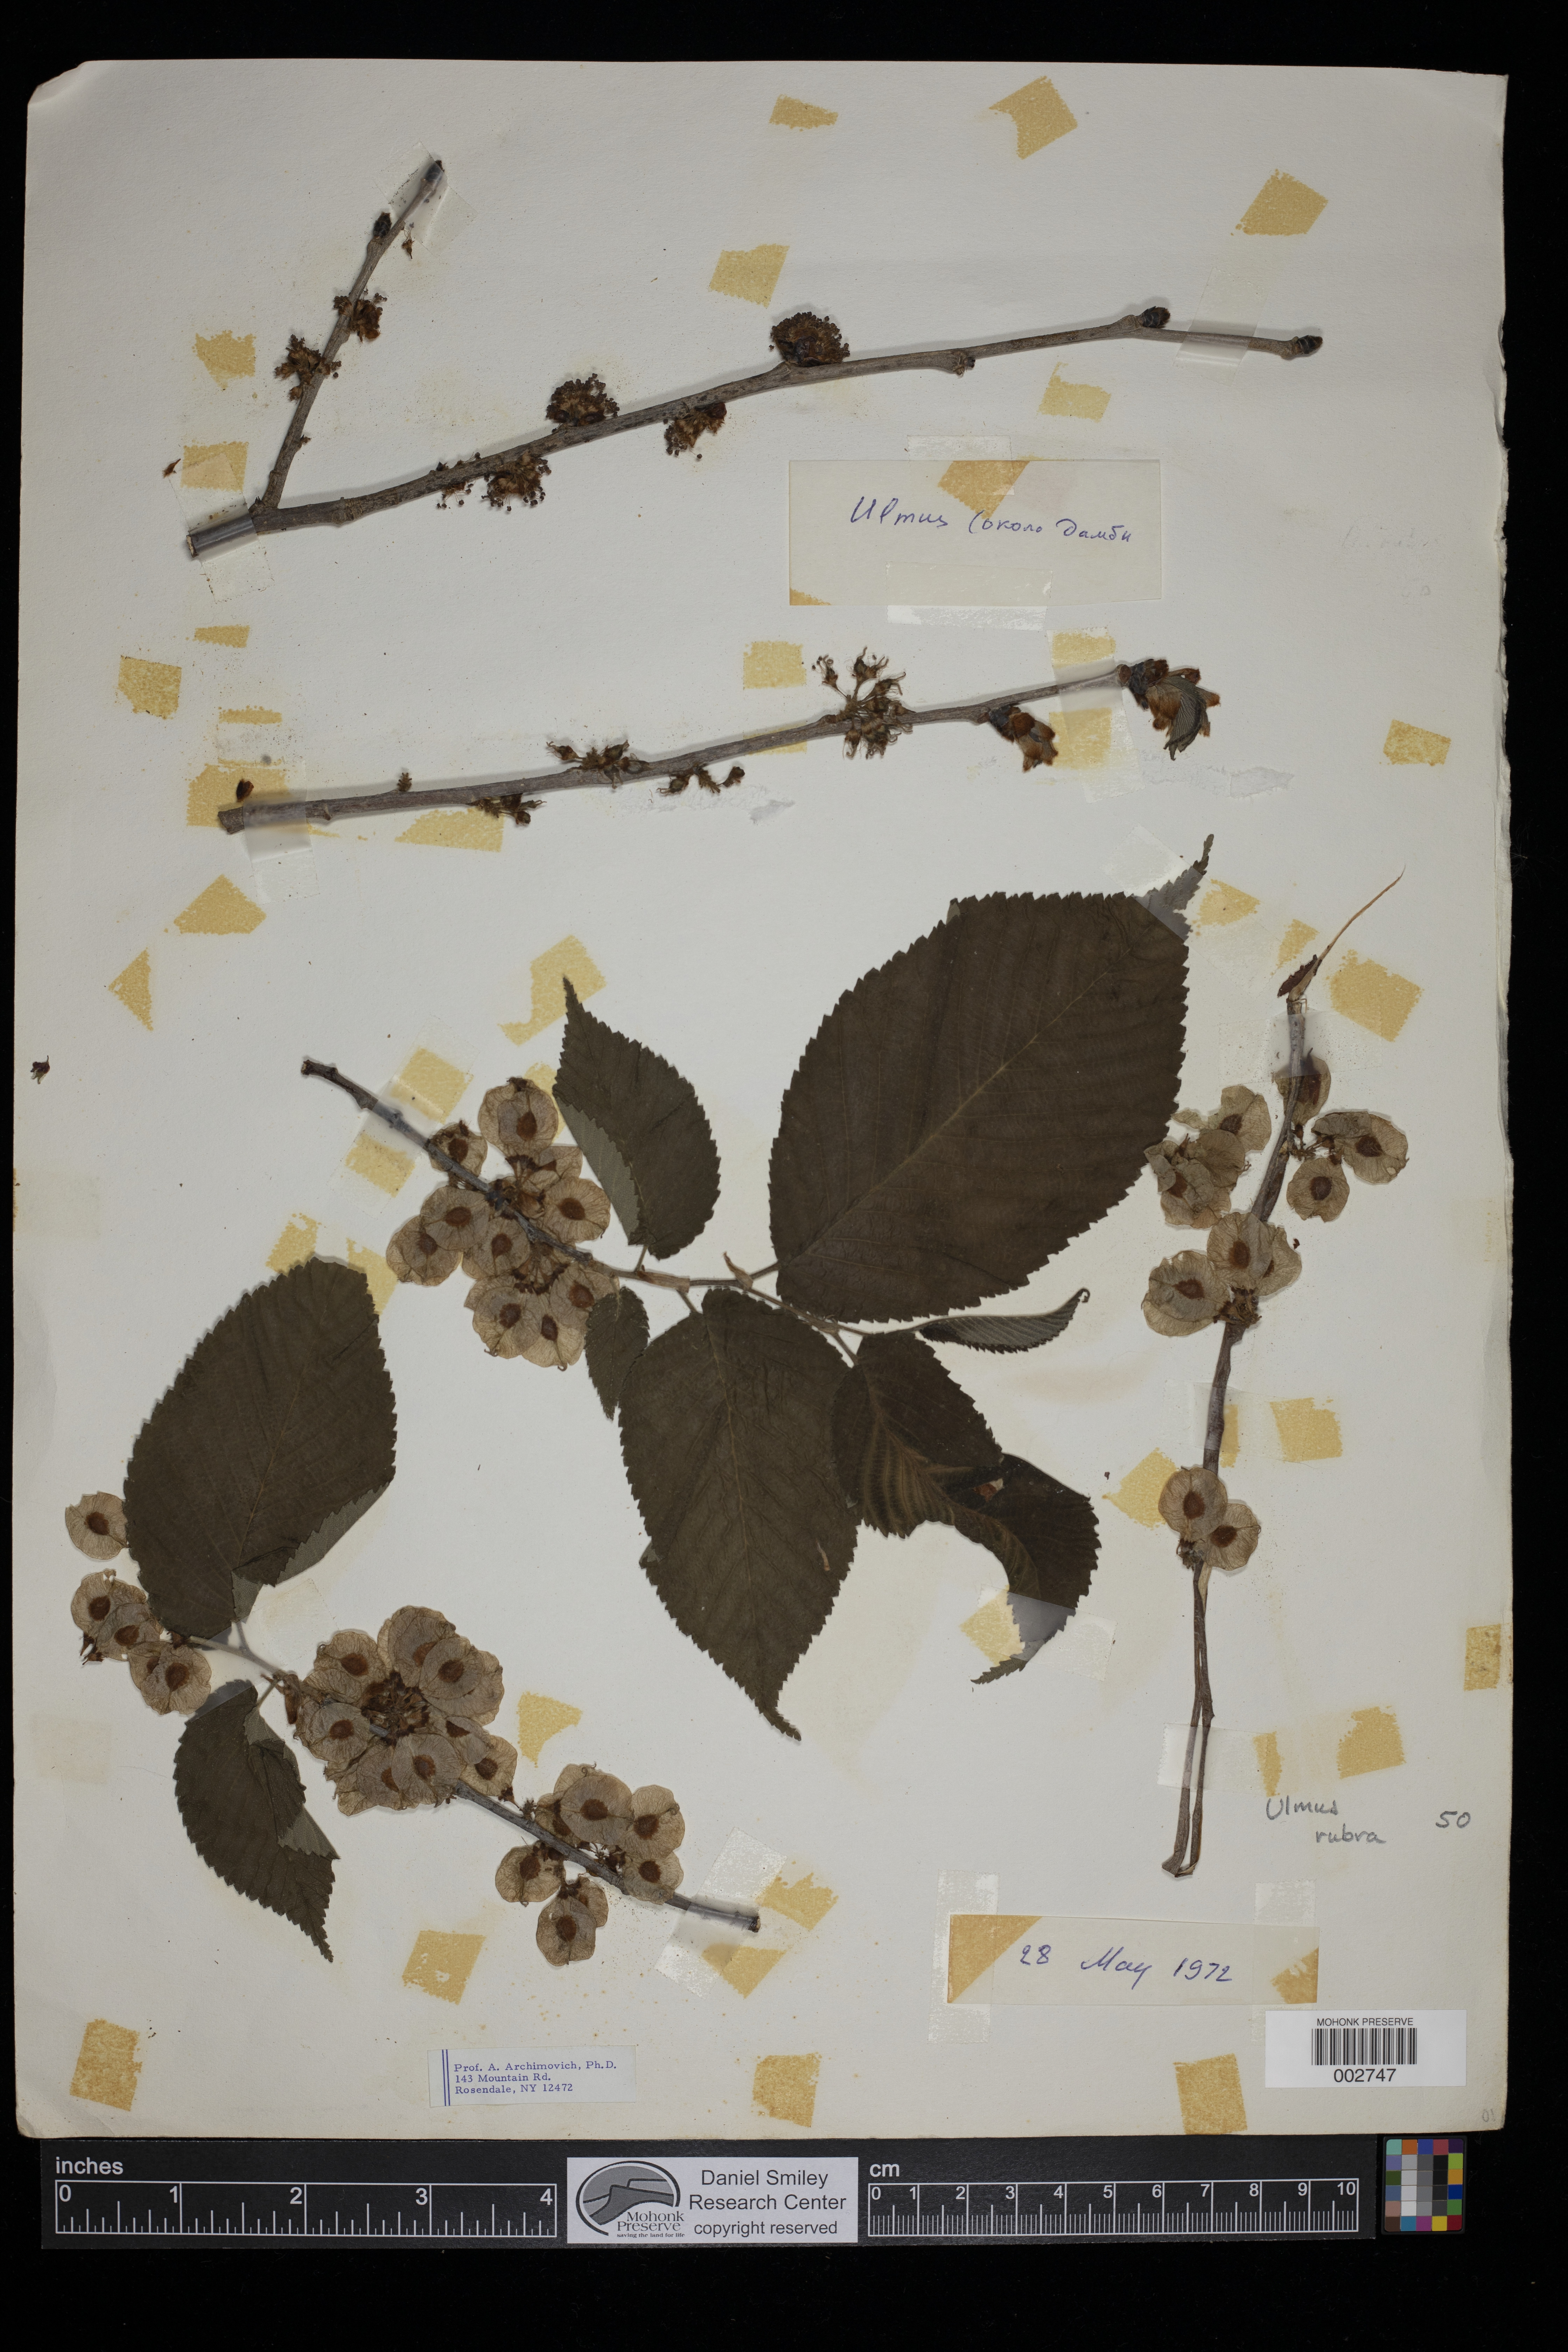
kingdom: Plantae
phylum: Tracheophyta
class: Magnoliopsida
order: Rosales
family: Ulmaceae
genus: Ulmus
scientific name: Ulmus rubra
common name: Slippery elm
